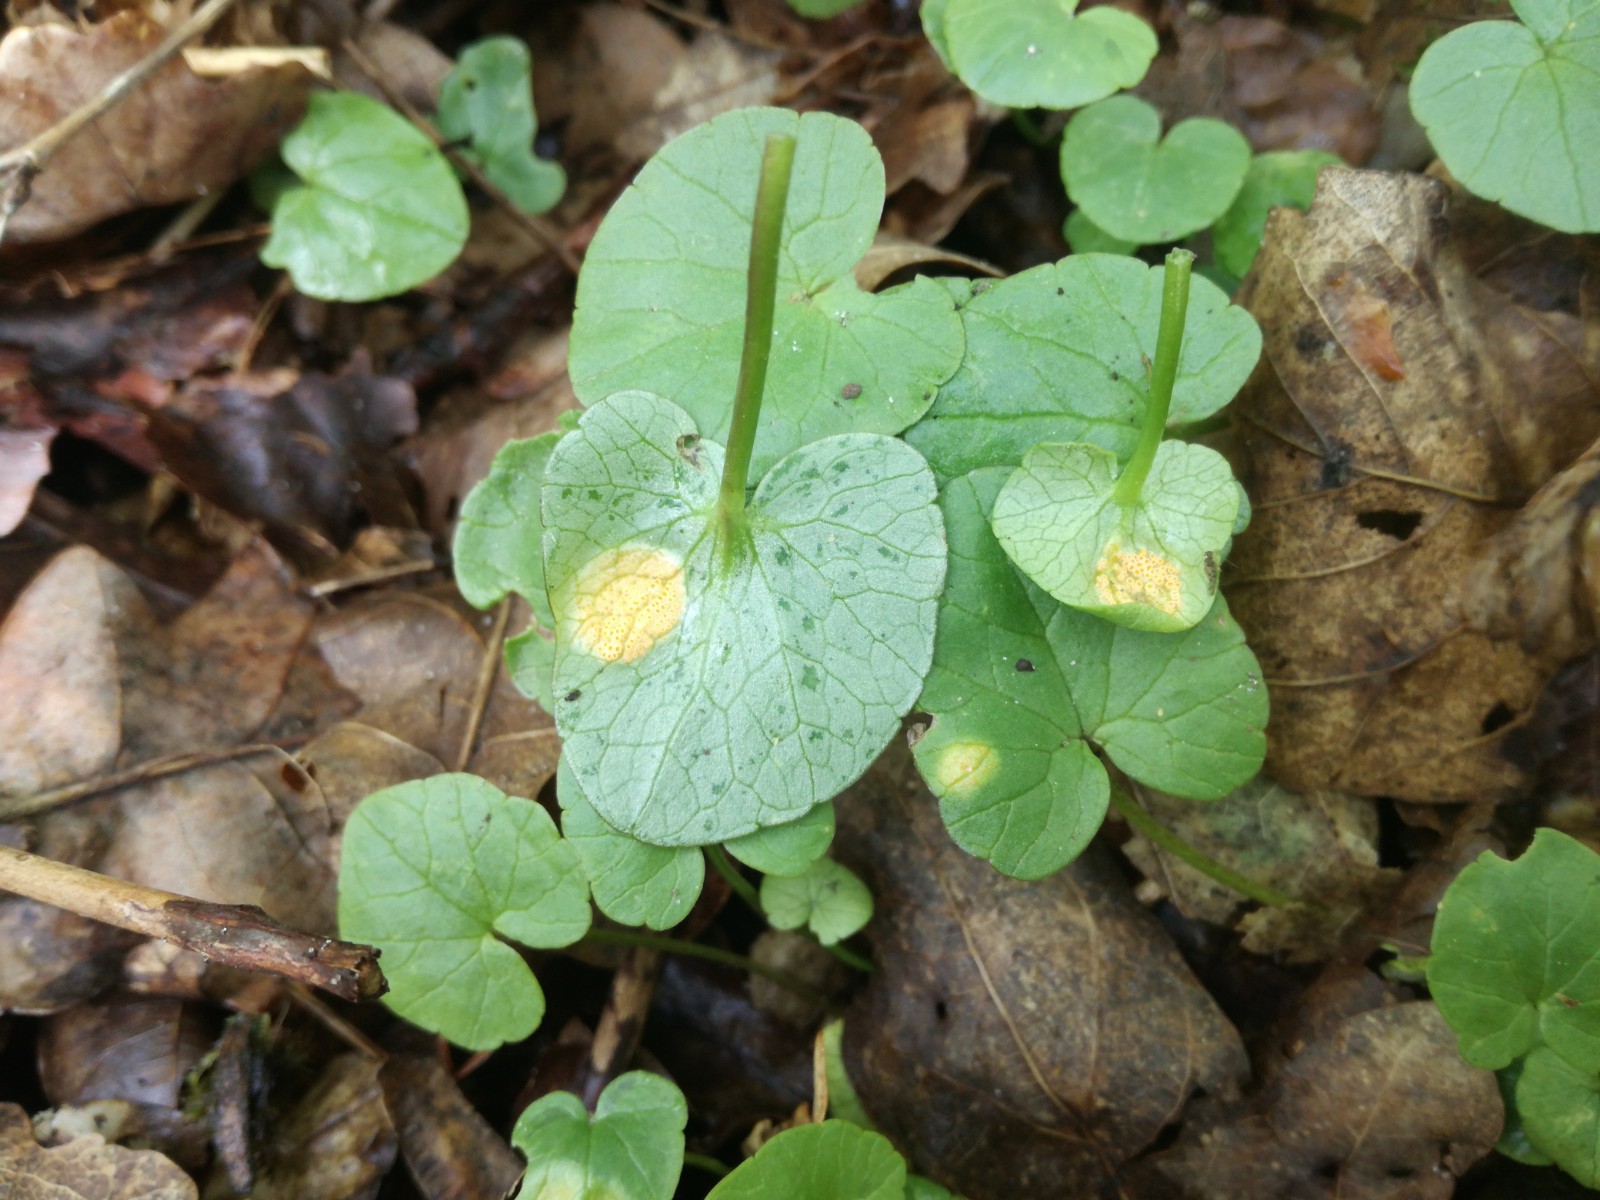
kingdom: Fungi
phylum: Basidiomycota
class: Pucciniomycetes
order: Pucciniales
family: Pucciniaceae
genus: Uromyces
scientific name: Uromyces dactylidis
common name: ranunkel-encellerust
